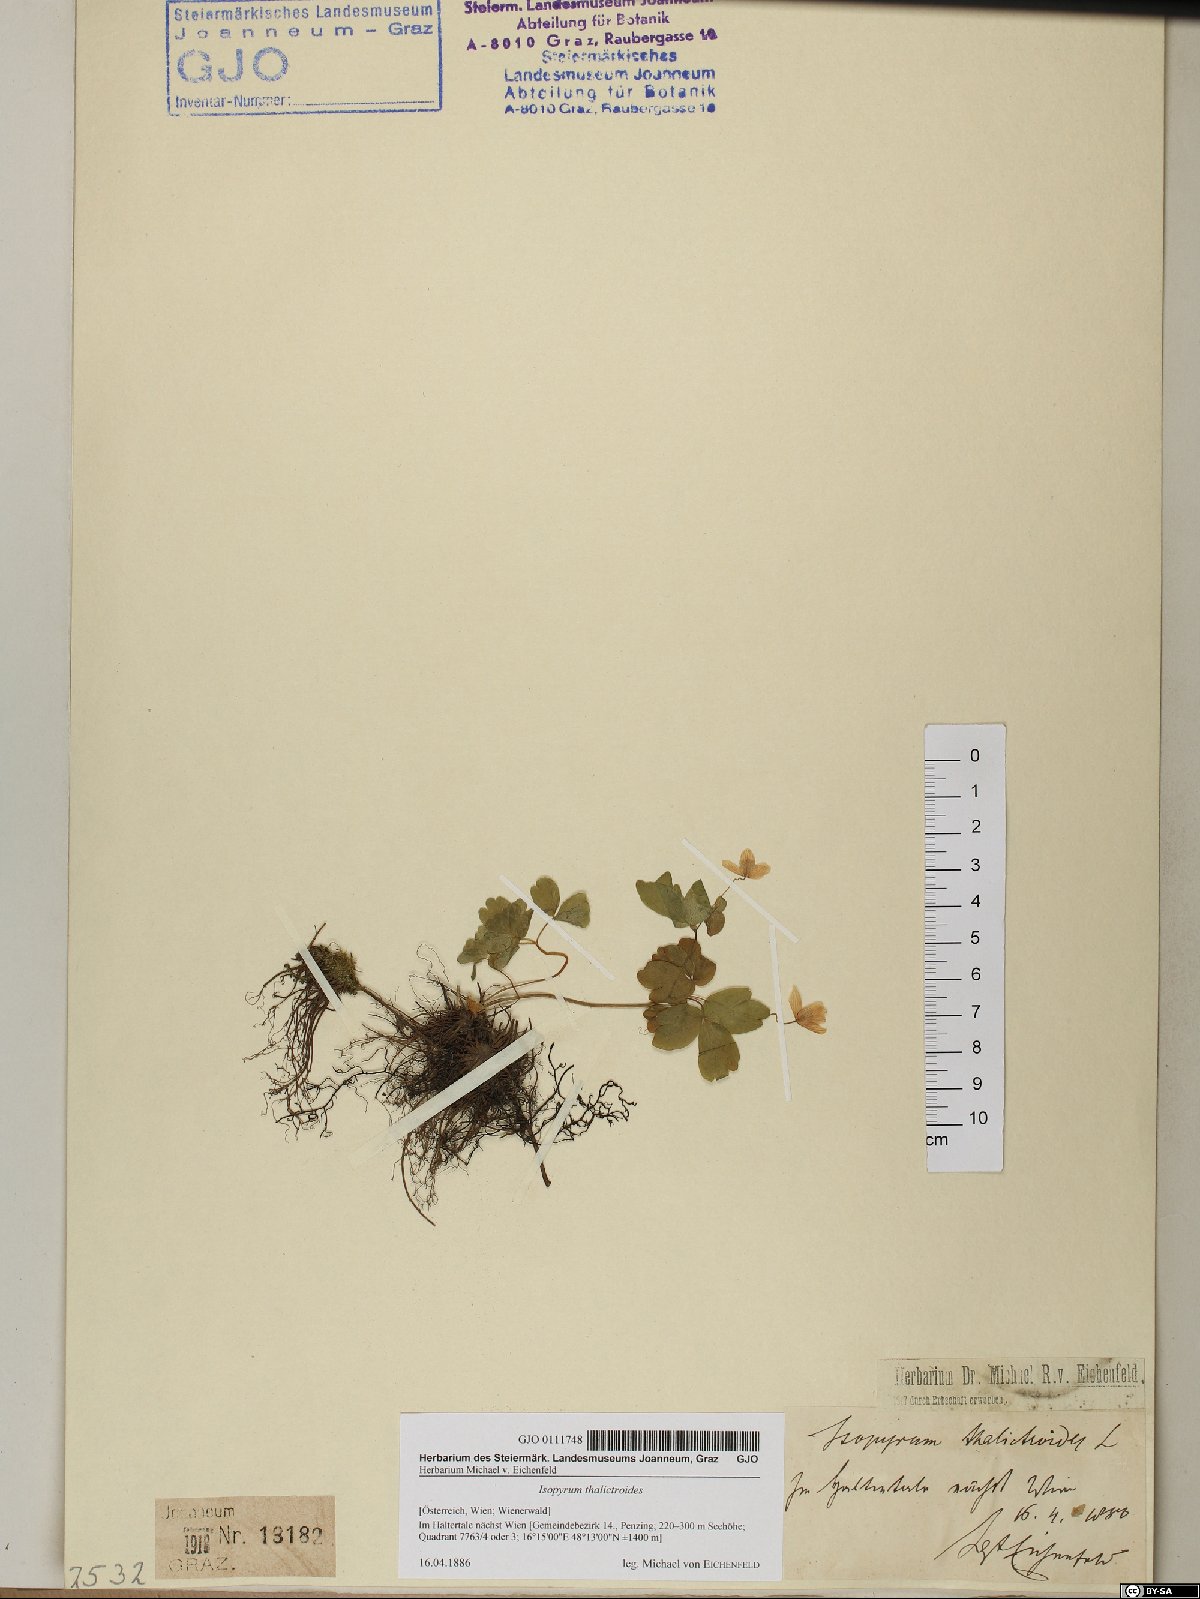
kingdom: Plantae
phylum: Tracheophyta
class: Magnoliopsida
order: Ranunculales
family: Ranunculaceae
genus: Isopyrum
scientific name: Isopyrum thalictroides
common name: Isopyrum
